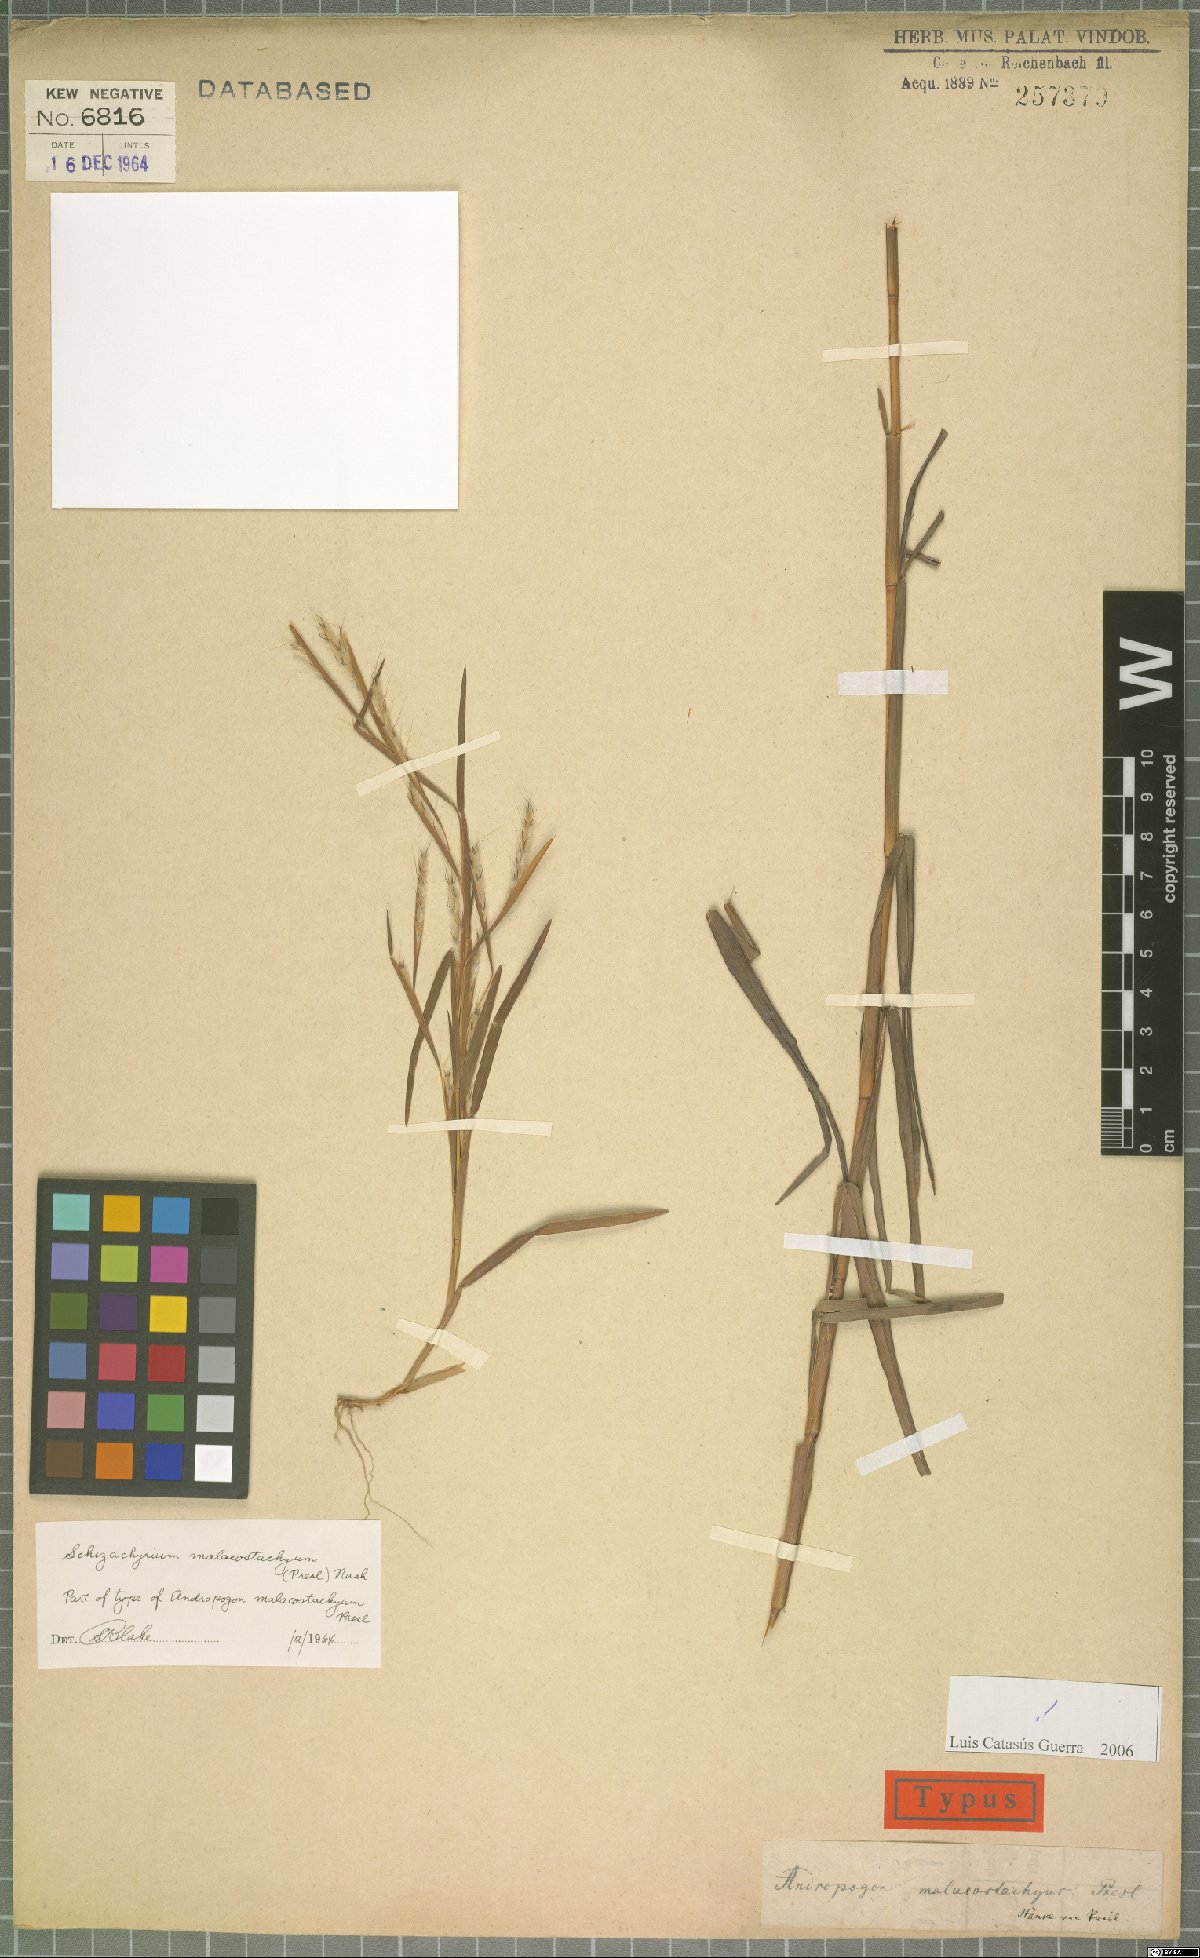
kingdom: Plantae
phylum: Tracheophyta
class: Liliopsida
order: Poales
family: Poaceae
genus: Schizachyrium
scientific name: Schizachyrium malacostachyum
